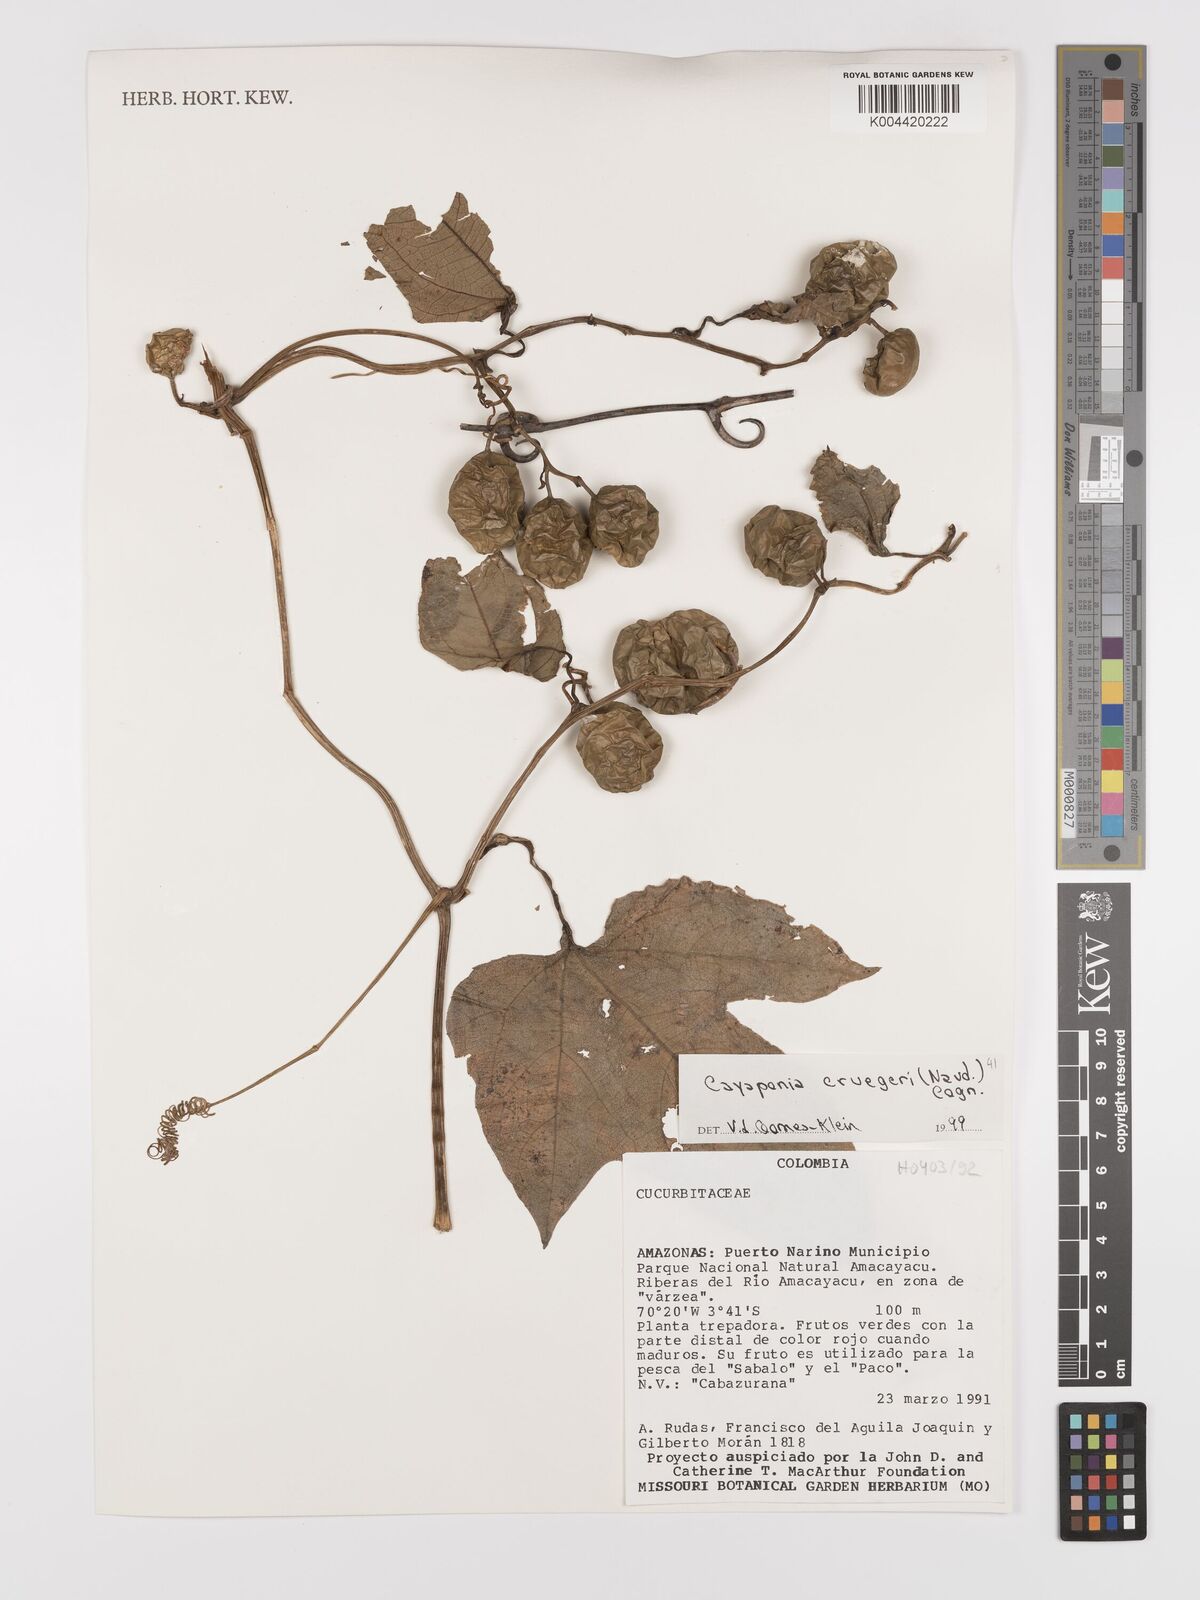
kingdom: Plantae
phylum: Tracheophyta
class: Magnoliopsida
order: Cucurbitales
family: Cucurbitaceae
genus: Cayaponia
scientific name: Cayaponia cruegeri
